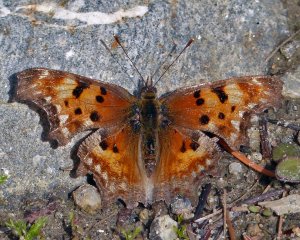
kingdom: Animalia
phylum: Arthropoda
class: Insecta
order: Lepidoptera
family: Nymphalidae
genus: Polygonia
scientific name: Polygonia gracilis
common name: Hoary Comma
